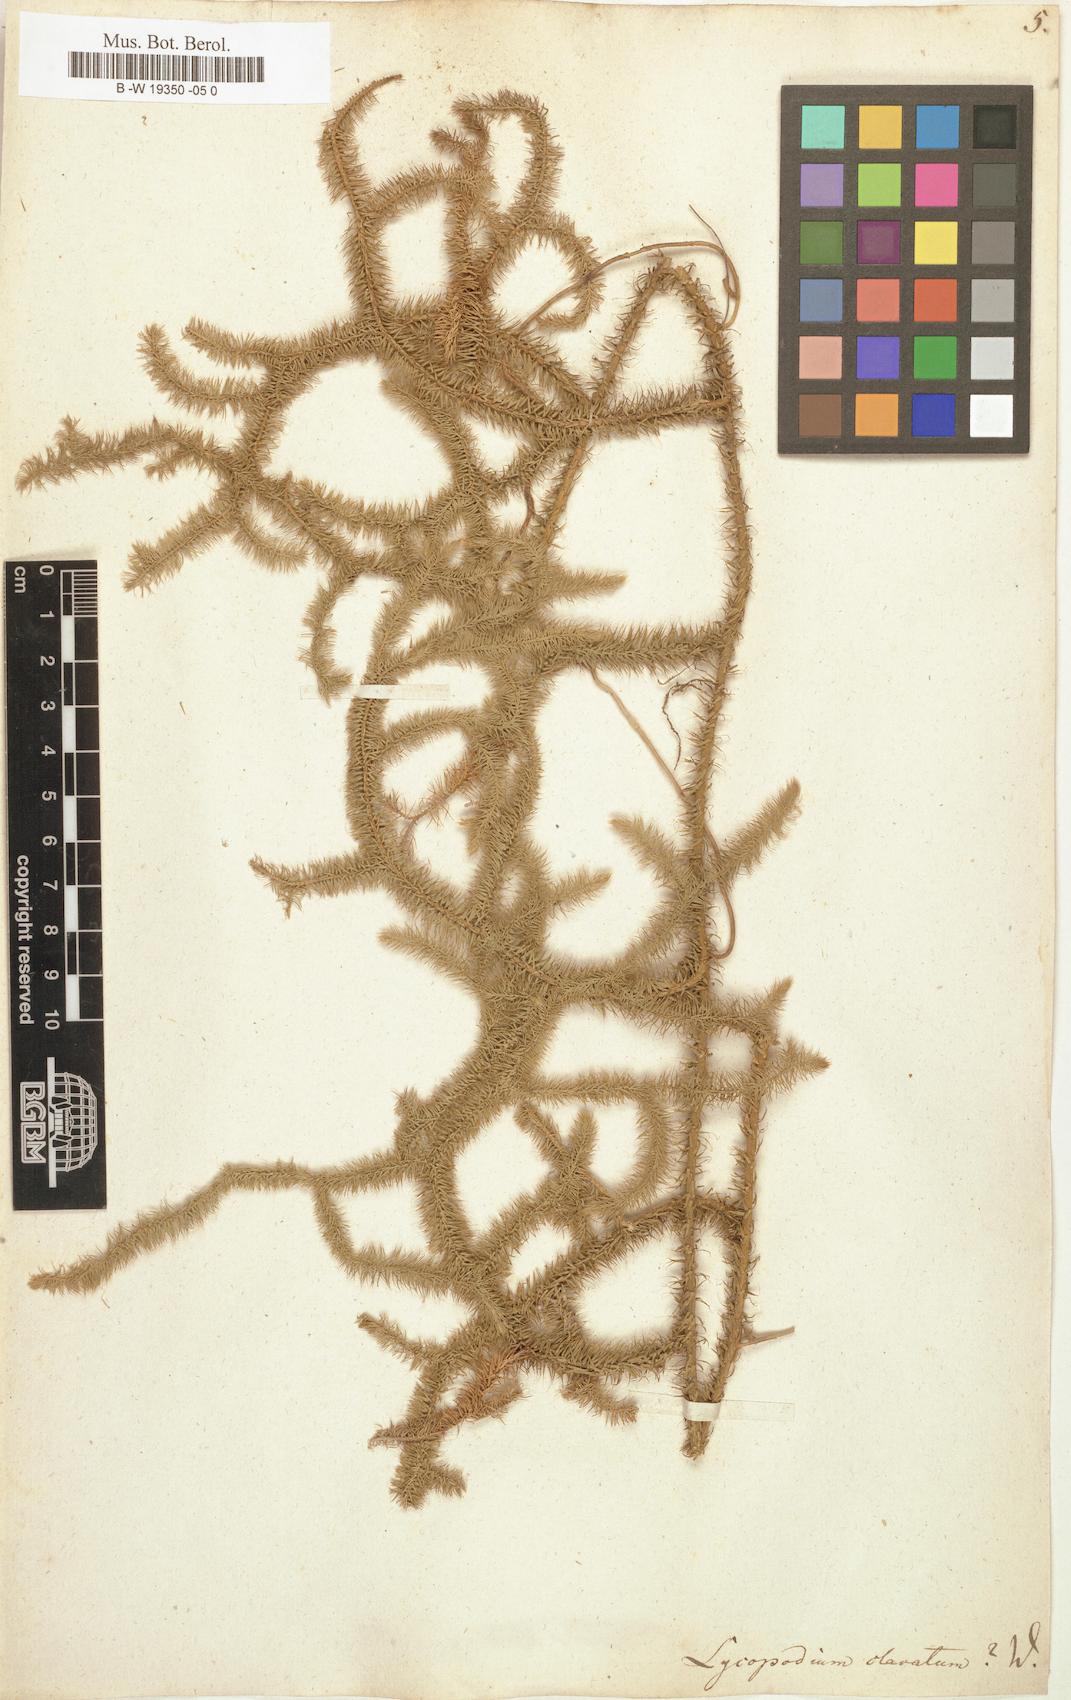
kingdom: Plantae
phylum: Tracheophyta
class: Lycopodiopsida
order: Lycopodiales
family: Lycopodiaceae
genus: Lycopodium
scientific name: Lycopodium clavatum
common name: Stag's-horn clubmoss
